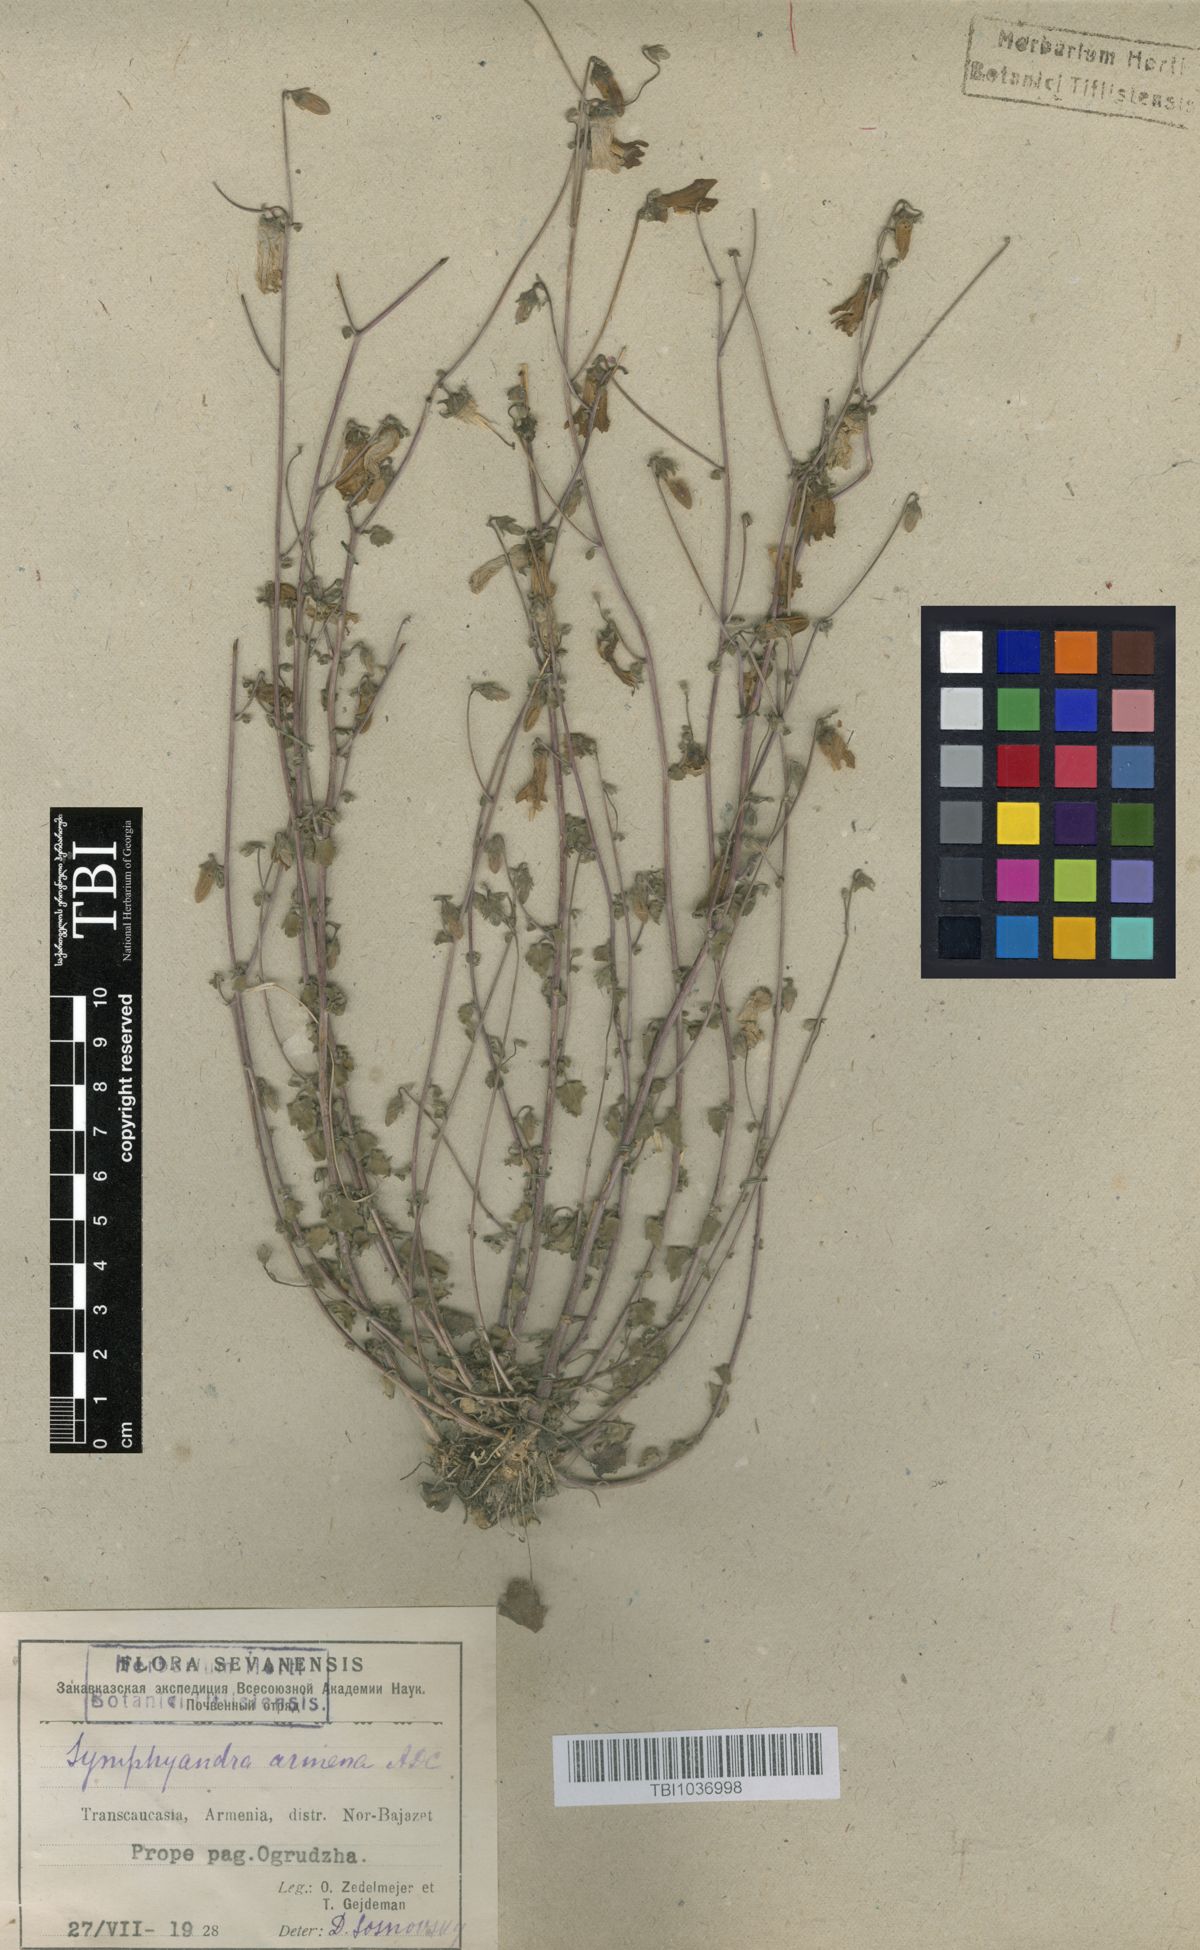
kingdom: Plantae
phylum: Tracheophyta
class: Magnoliopsida
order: Asterales
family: Campanulaceae
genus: Campanula
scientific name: Campanula armena
